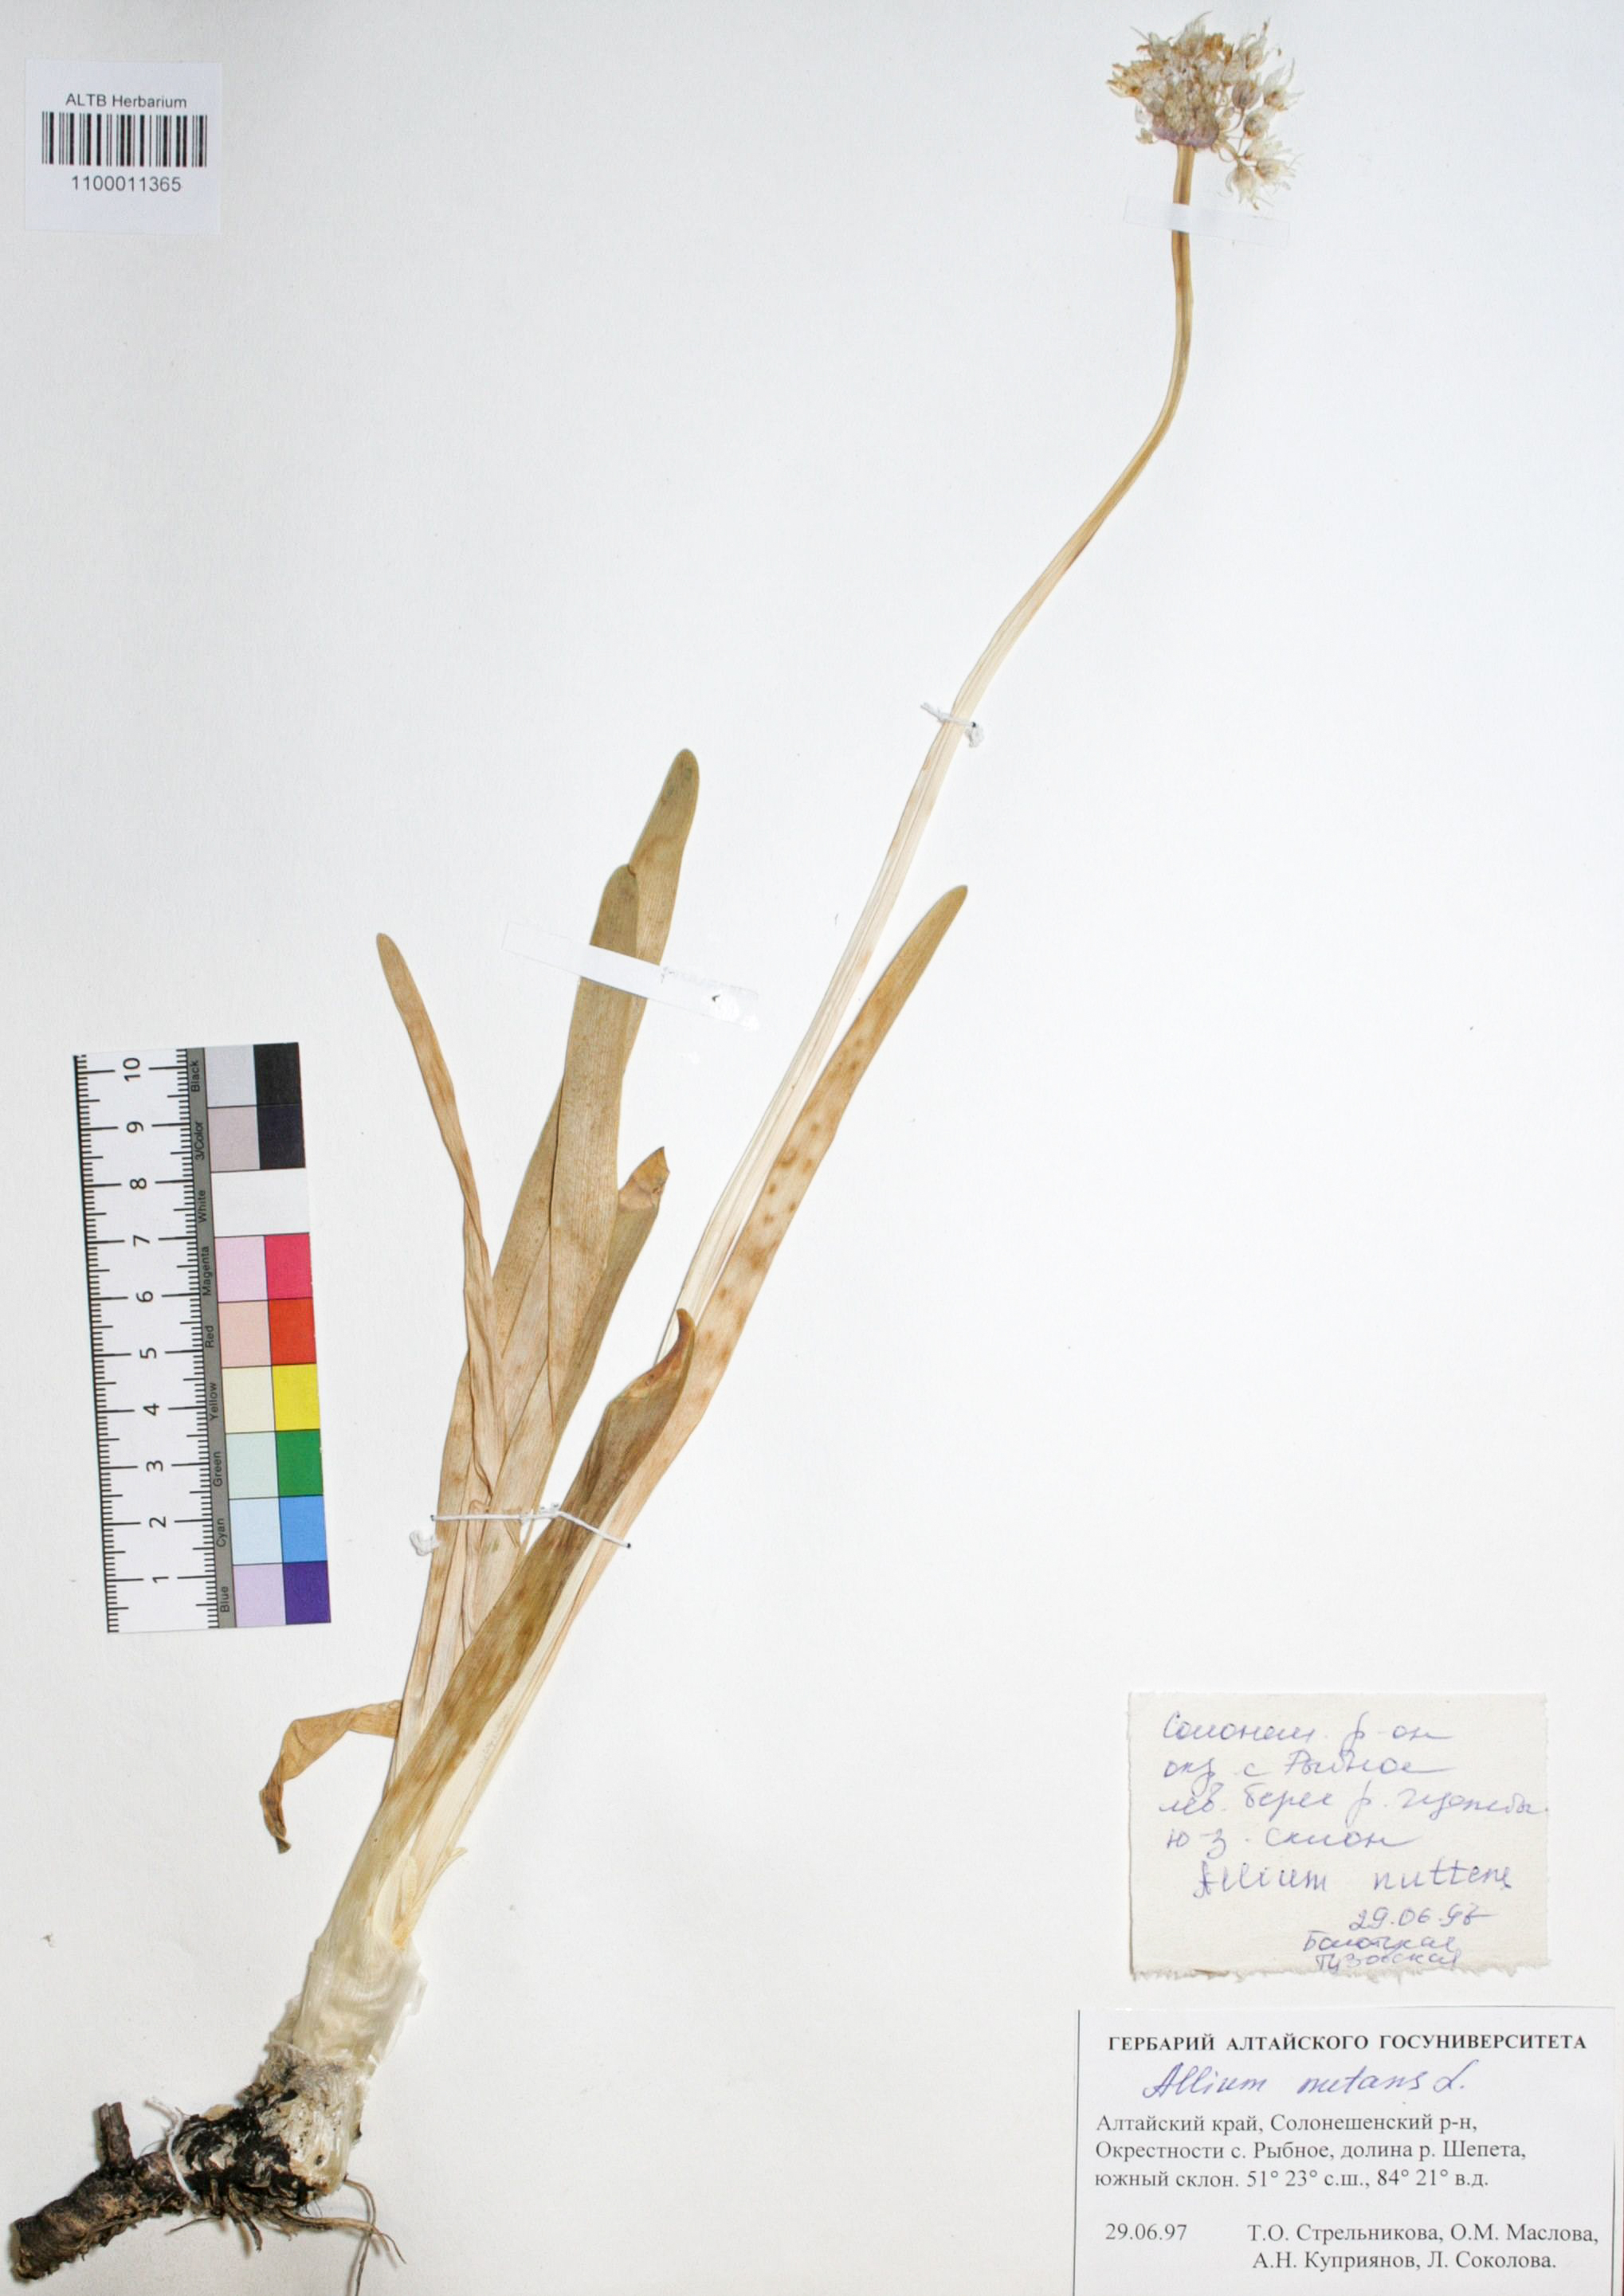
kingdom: Plantae
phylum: Tracheophyta
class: Liliopsida
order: Asparagales
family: Amaryllidaceae
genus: Allium
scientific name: Allium nutans
